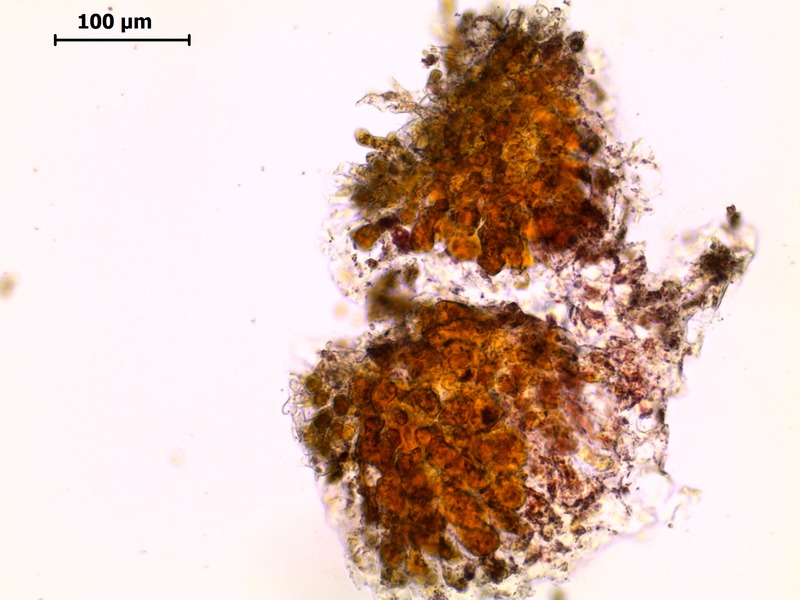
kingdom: Fungi
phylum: Basidiomycota
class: Pucciniomycetes
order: Pucciniales
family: Coleosporiaceae
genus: Coleosporium
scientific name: Coleosporium tussilaginis
